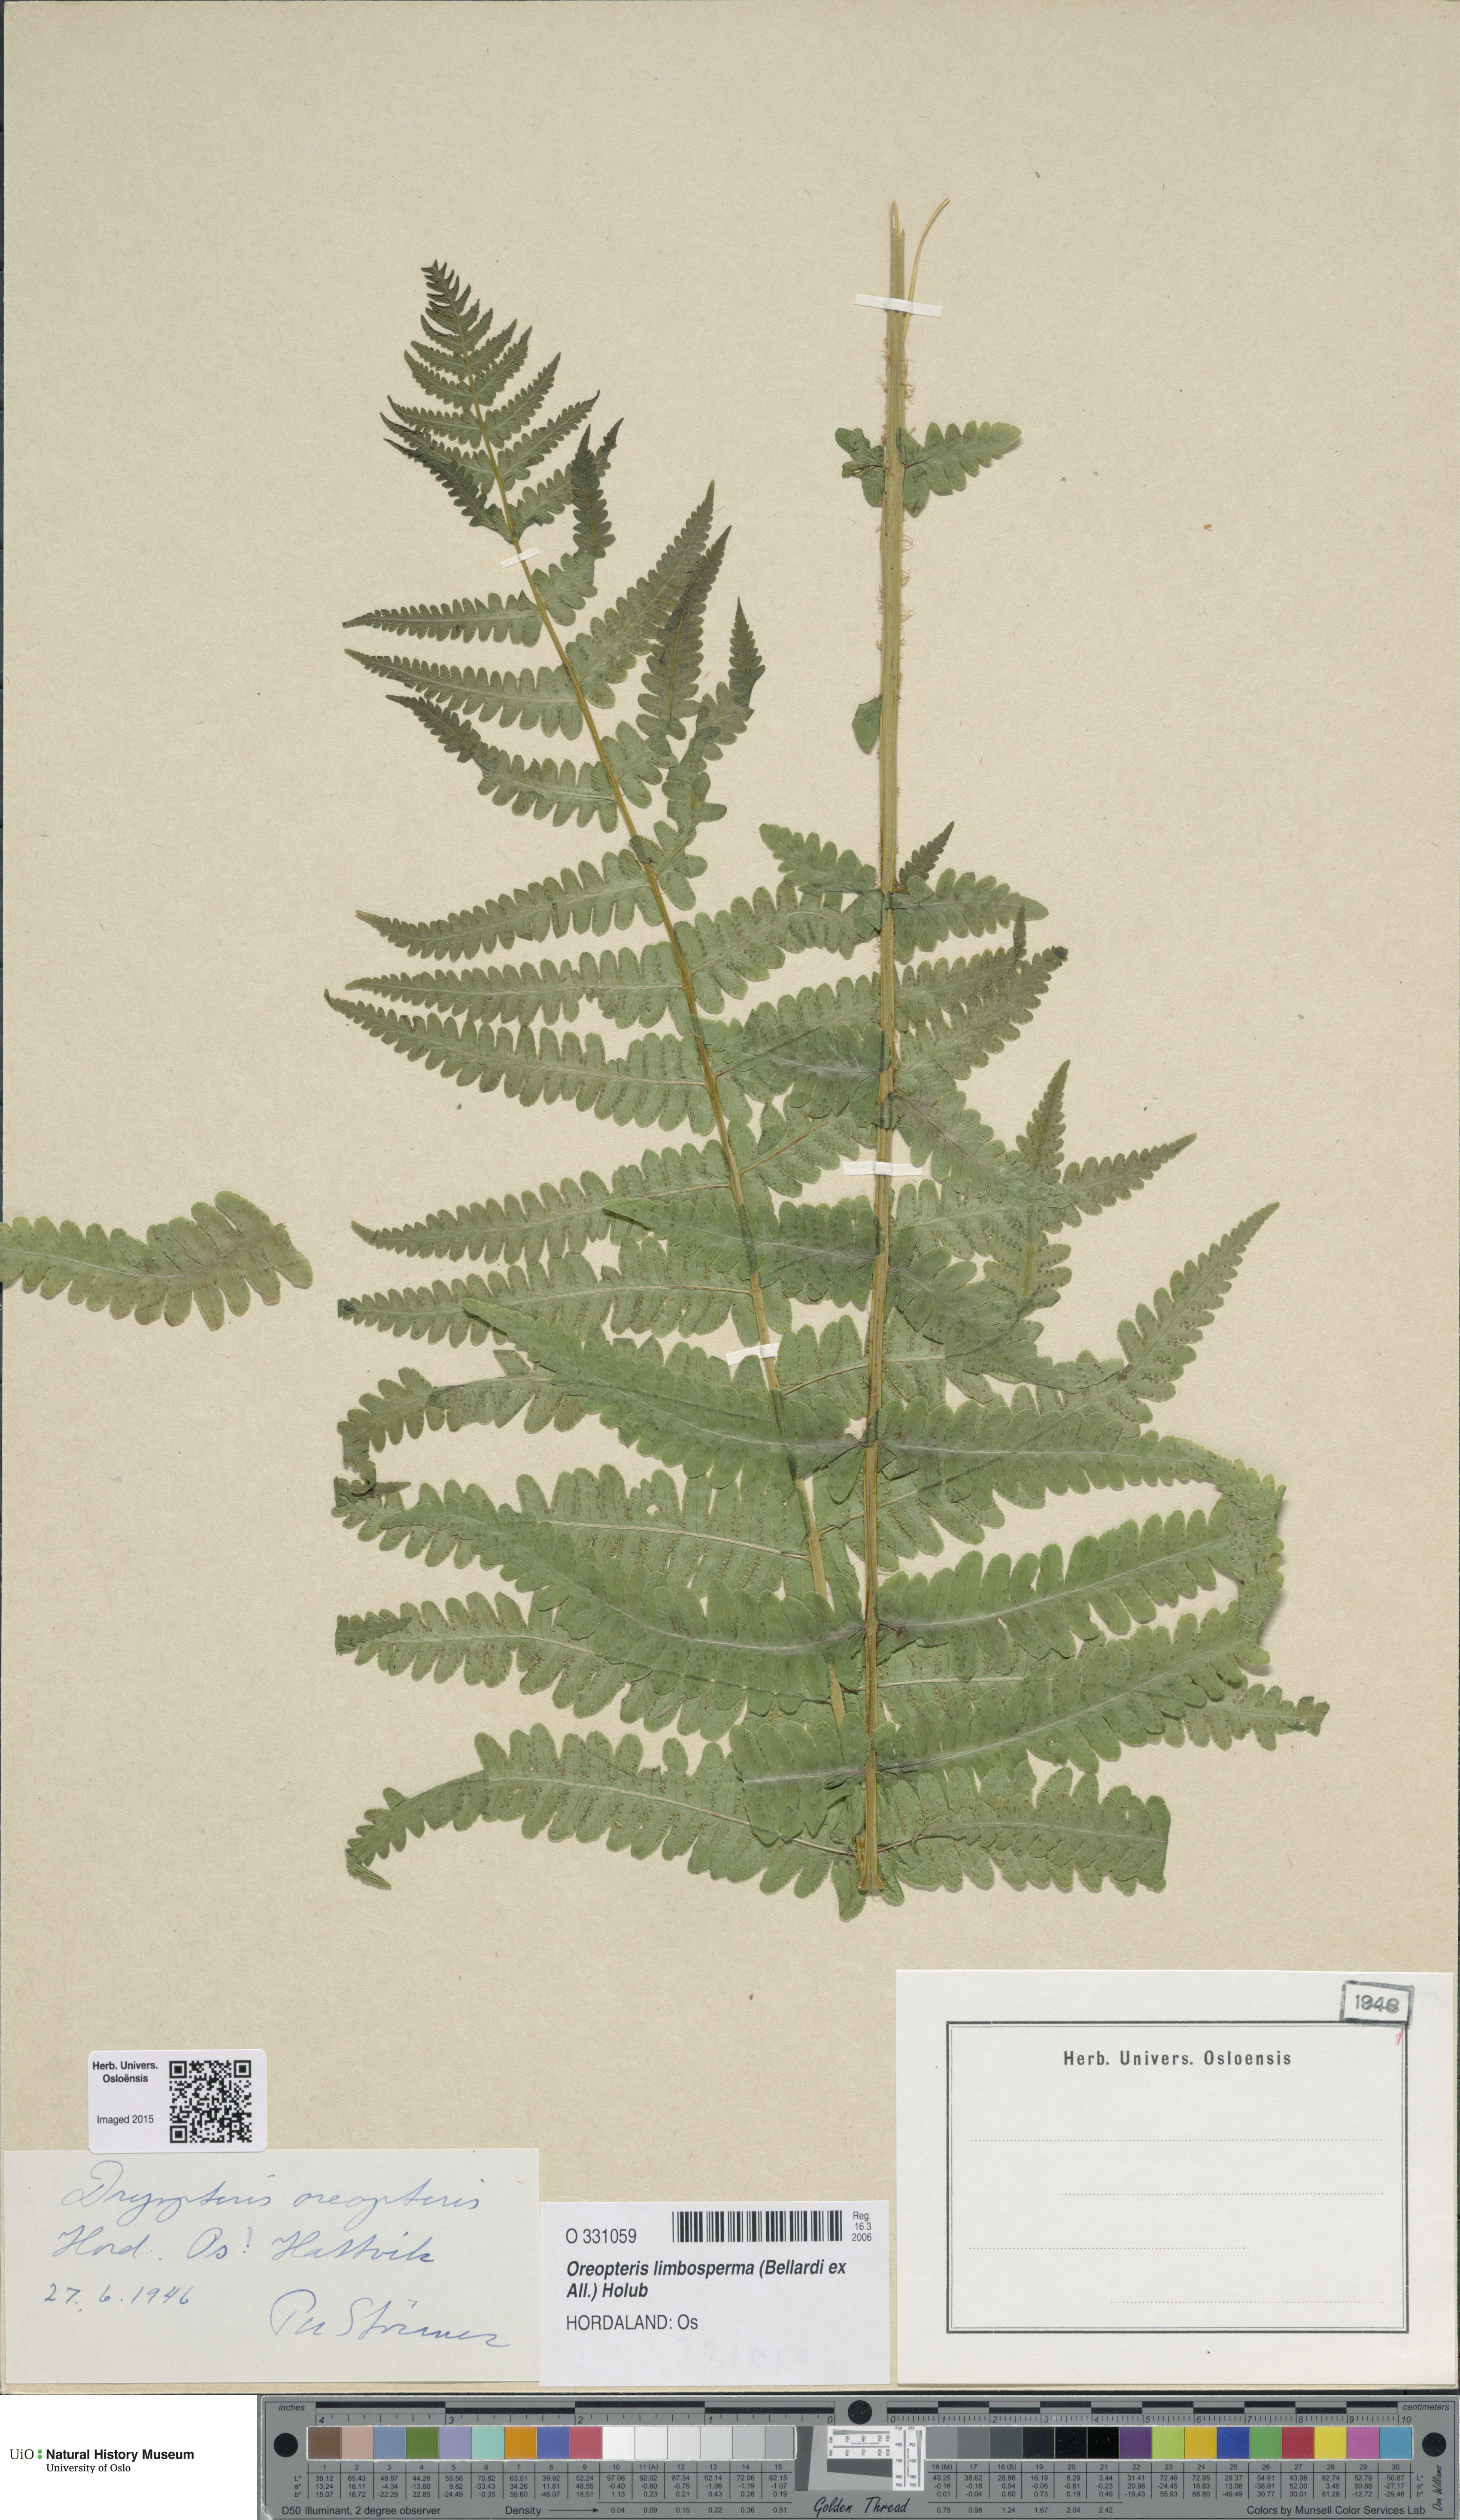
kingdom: Plantae
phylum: Tracheophyta
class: Polypodiopsida
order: Polypodiales
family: Thelypteridaceae
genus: Oreopteris
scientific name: Oreopteris limbosperma
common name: Lemon-scented fern
